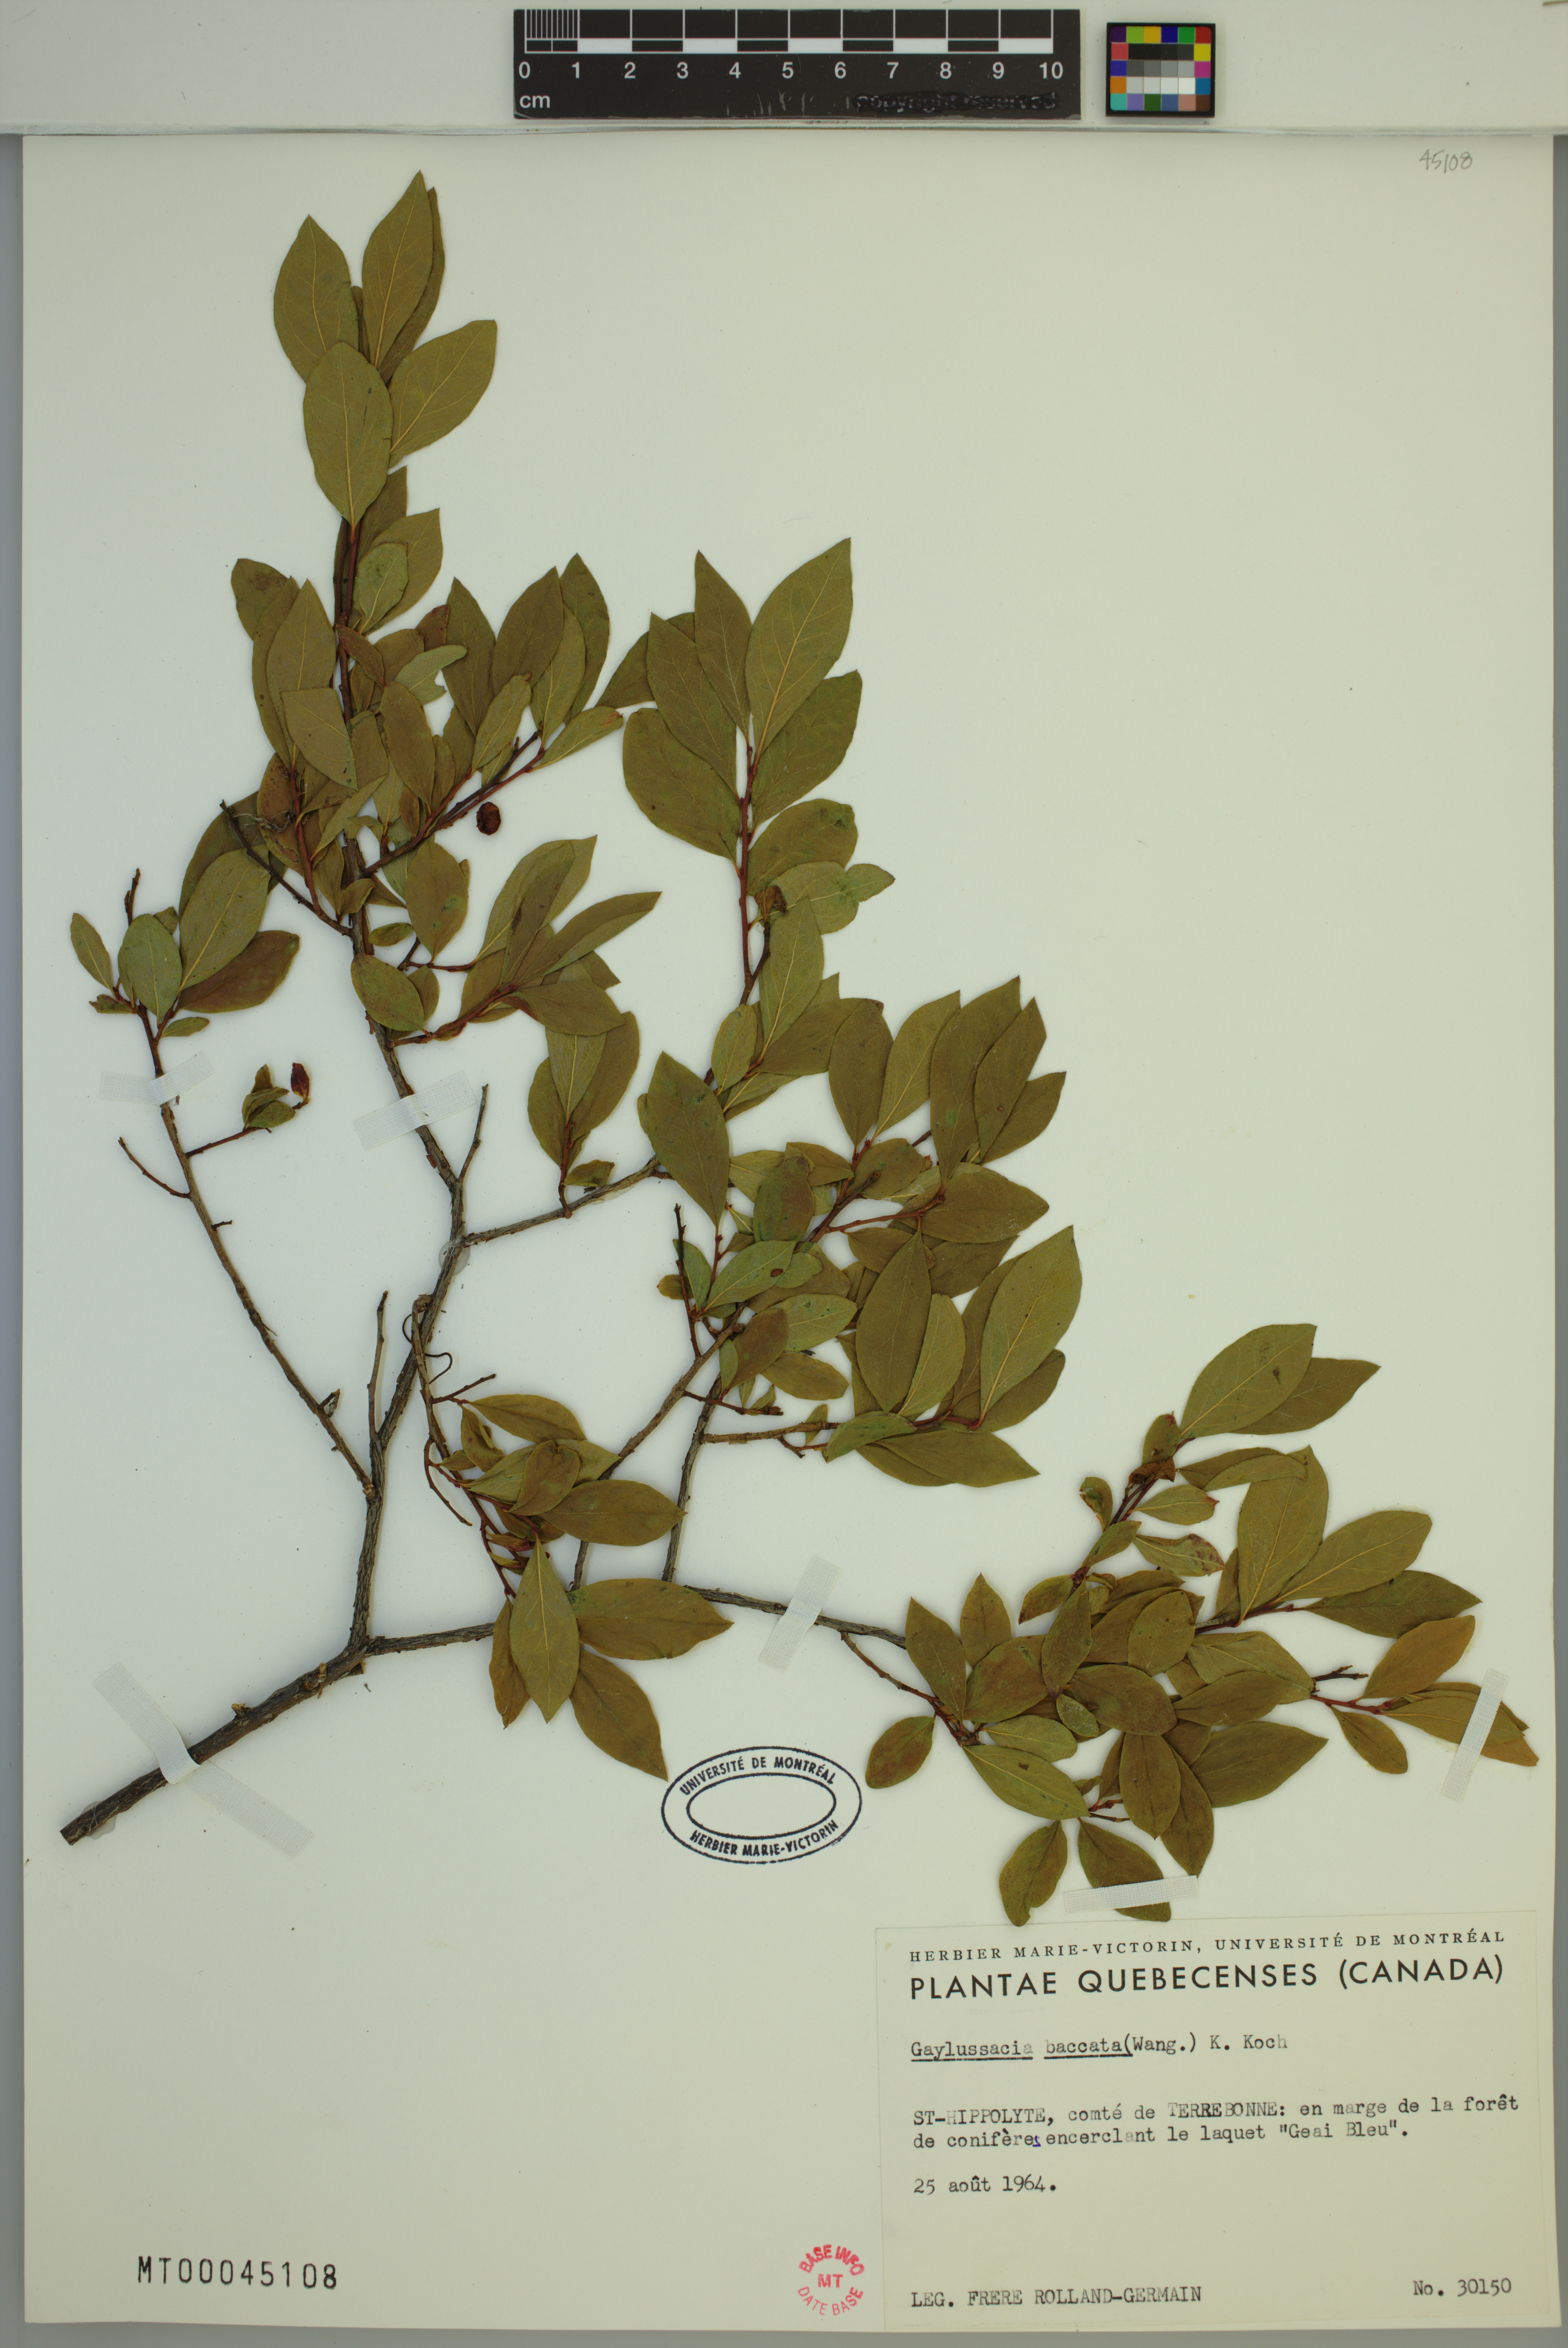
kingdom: Plantae
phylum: Tracheophyta
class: Magnoliopsida
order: Ericales
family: Ericaceae
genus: Gaylussacia
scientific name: Gaylussacia baccata
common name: Black huckleberry
